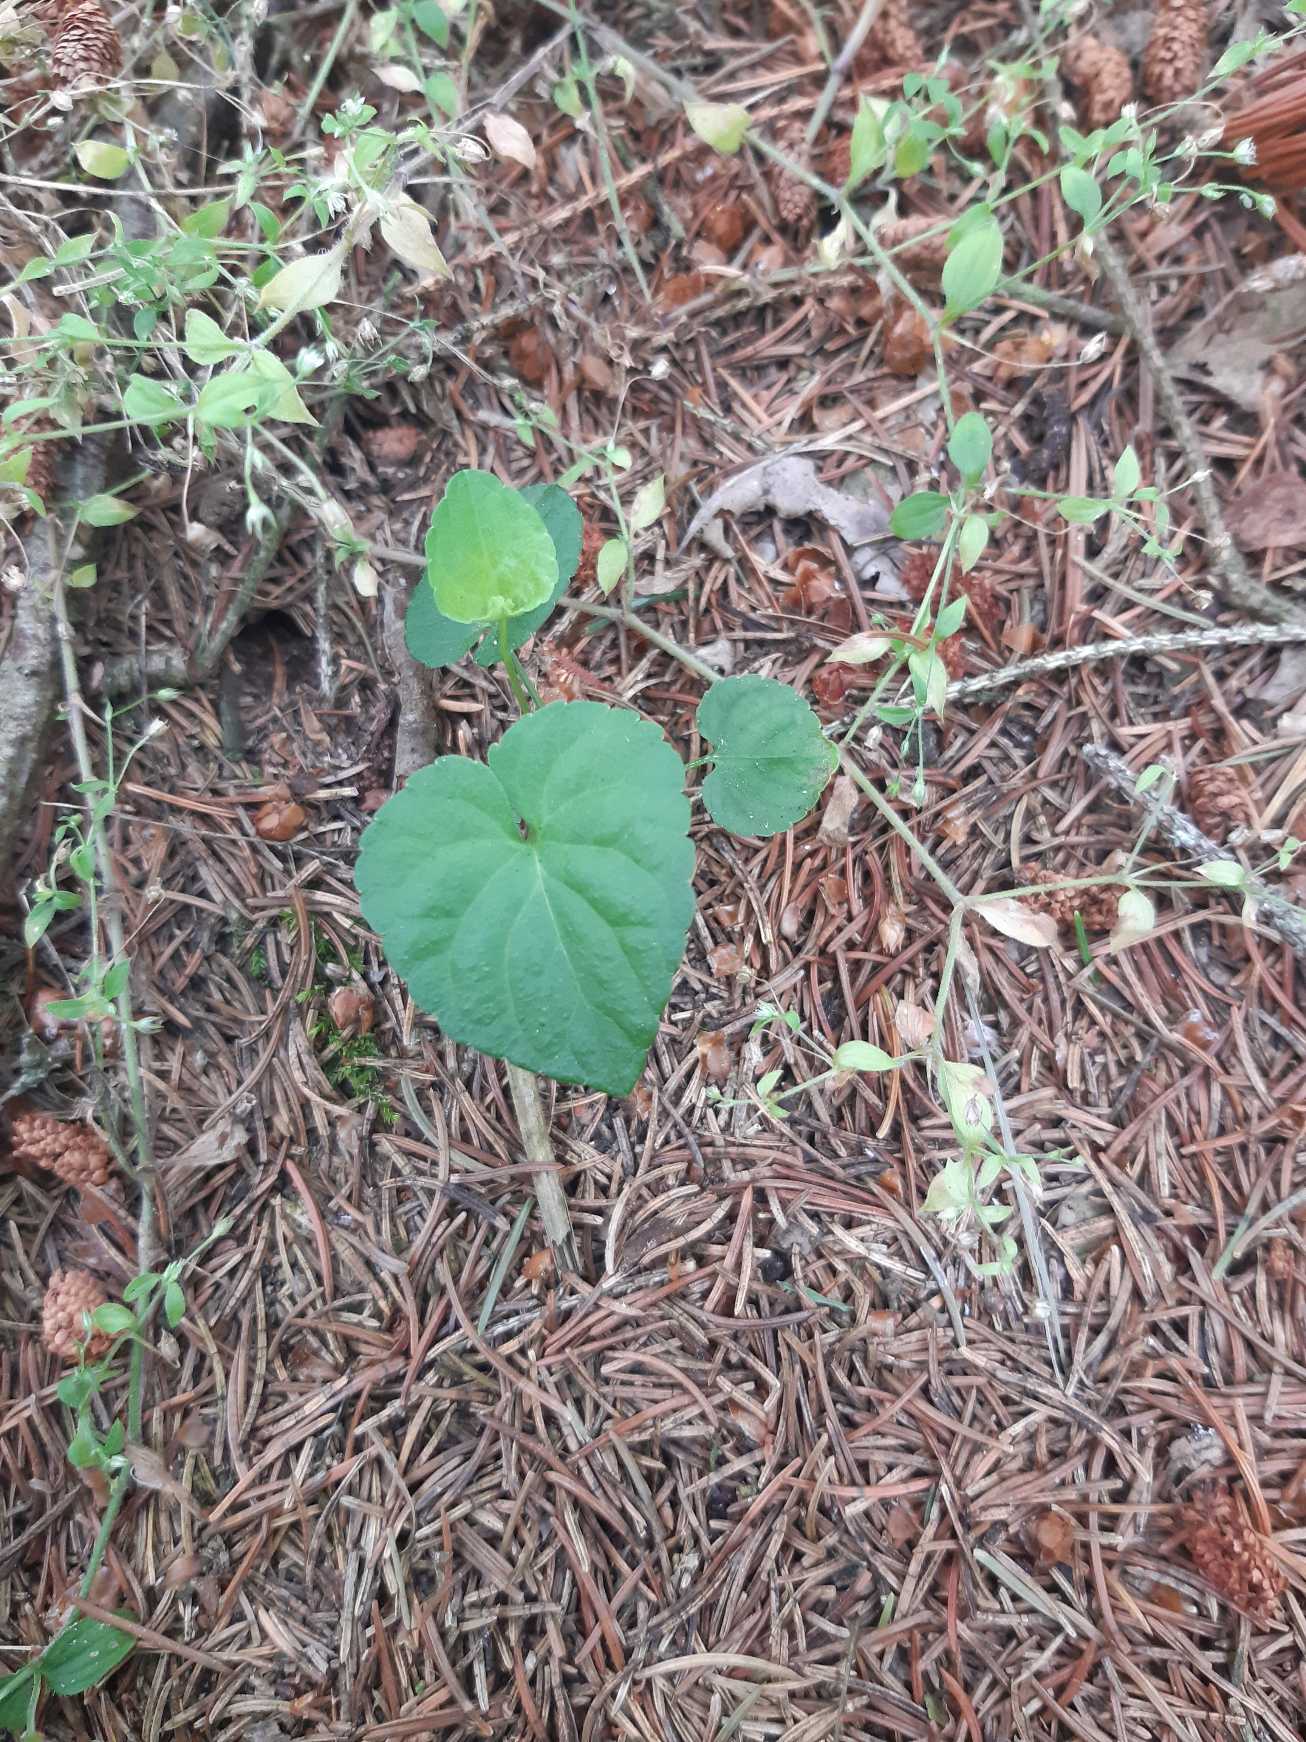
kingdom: Plantae
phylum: Tracheophyta
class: Magnoliopsida
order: Malpighiales
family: Violaceae
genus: Viola
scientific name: Viola
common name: Violslægten
